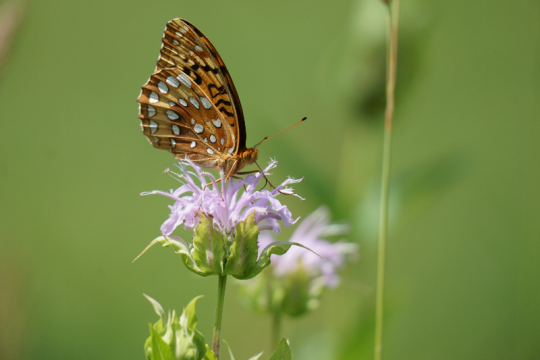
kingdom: Animalia
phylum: Arthropoda
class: Insecta
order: Lepidoptera
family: Nymphalidae
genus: Speyeria
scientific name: Speyeria cybele
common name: Great Spangled Fritillary
